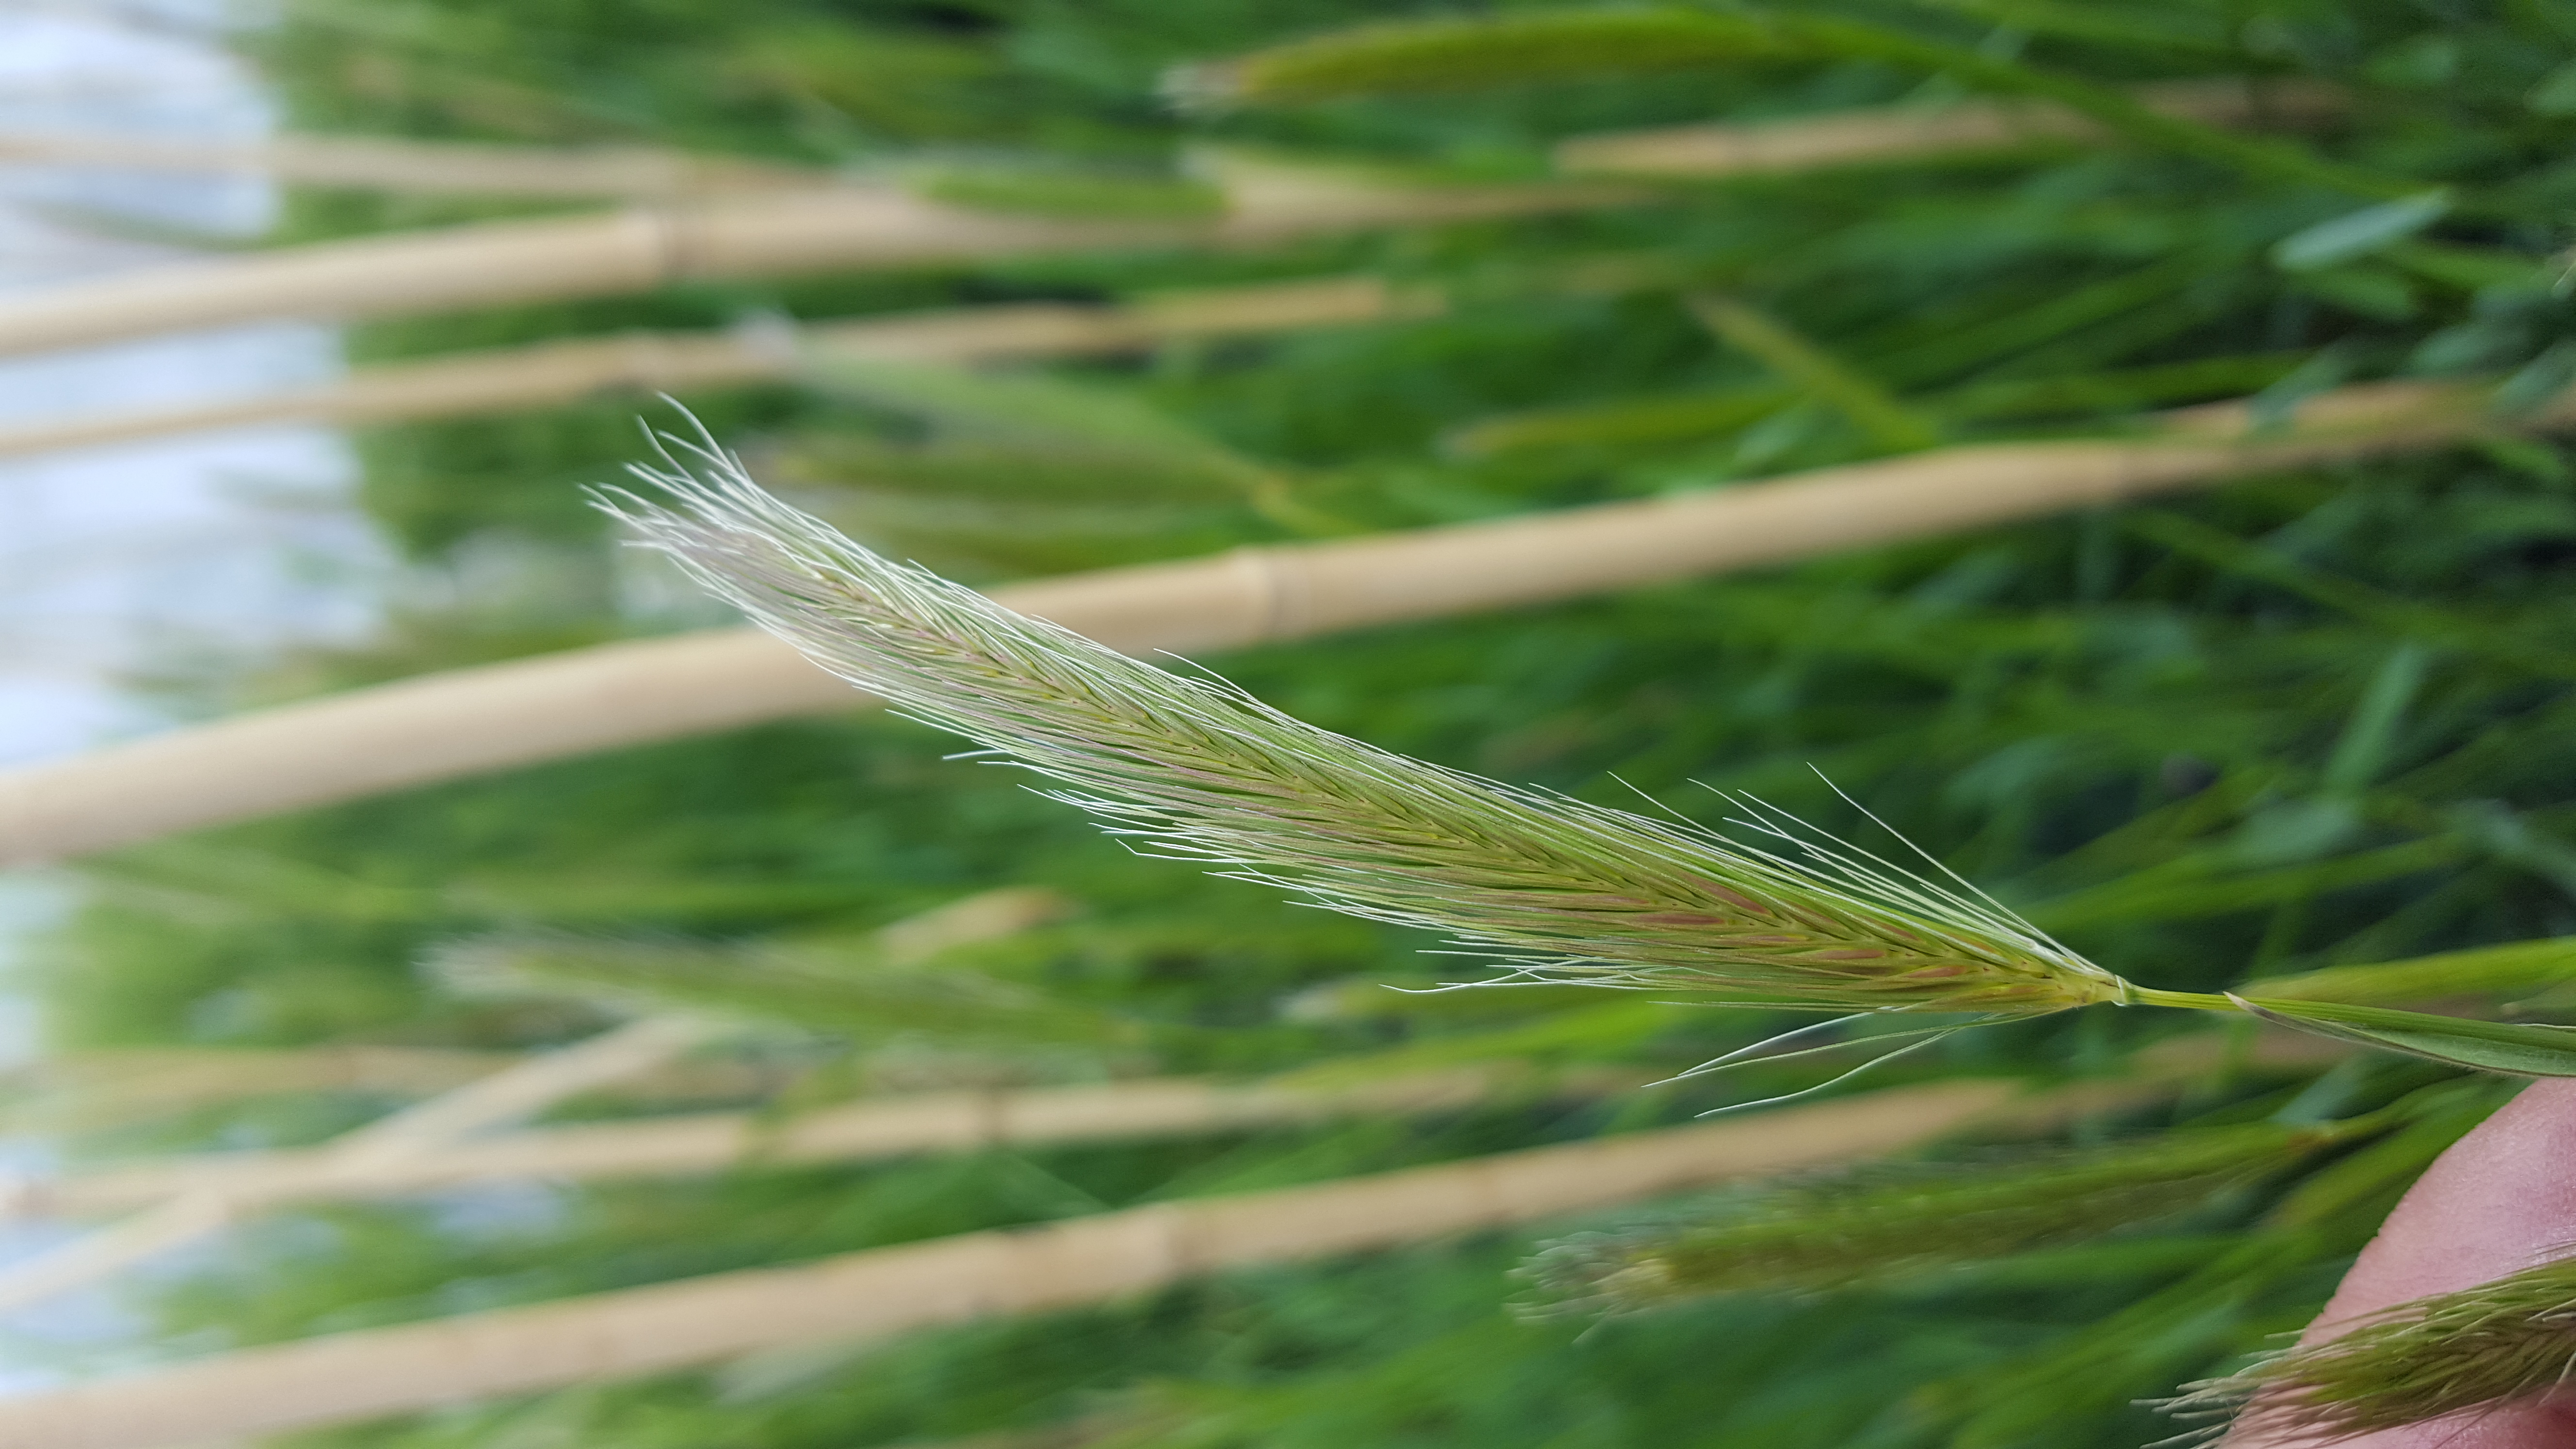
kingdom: Plantae
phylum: Tracheophyta
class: Liliopsida
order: Poales
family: Poaceae
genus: Hordeum
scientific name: Hordeum californicum
